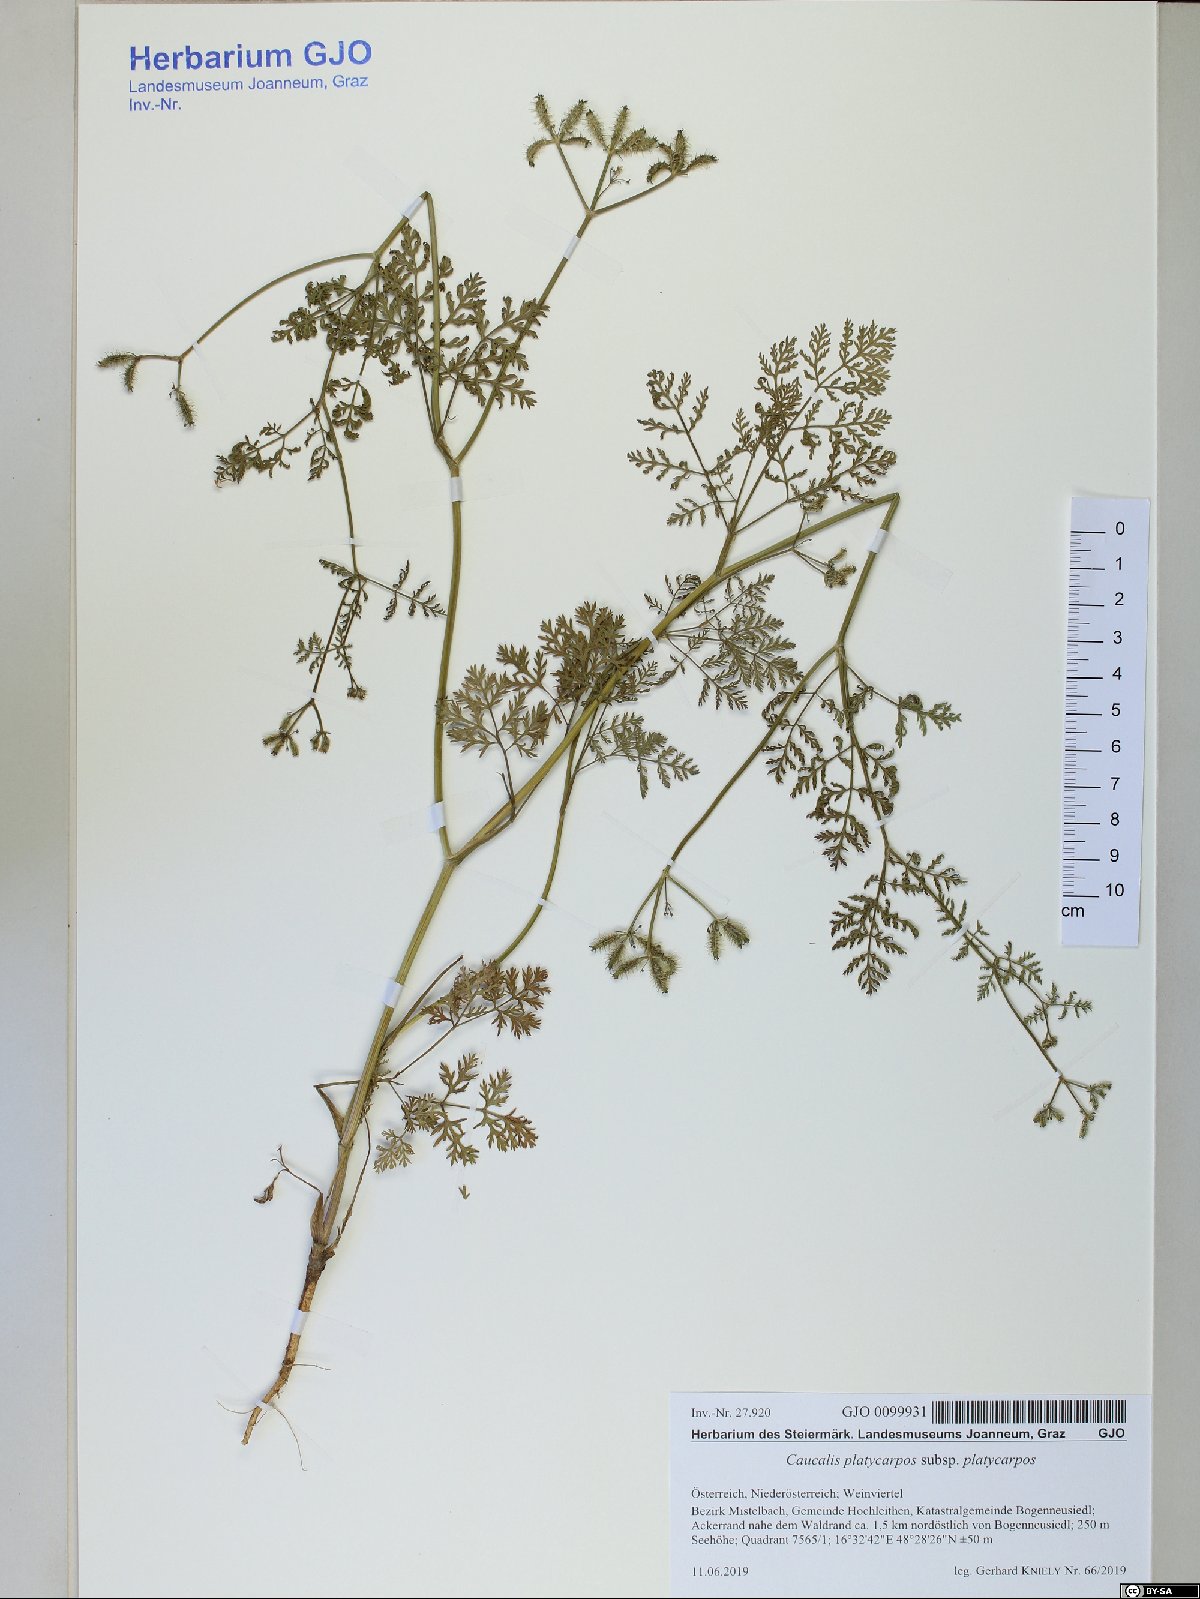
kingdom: Plantae
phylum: Tracheophyta
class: Magnoliopsida
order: Apiales
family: Apiaceae
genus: Caucalis
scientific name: Caucalis platycarpos
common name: Small bur-parsley
